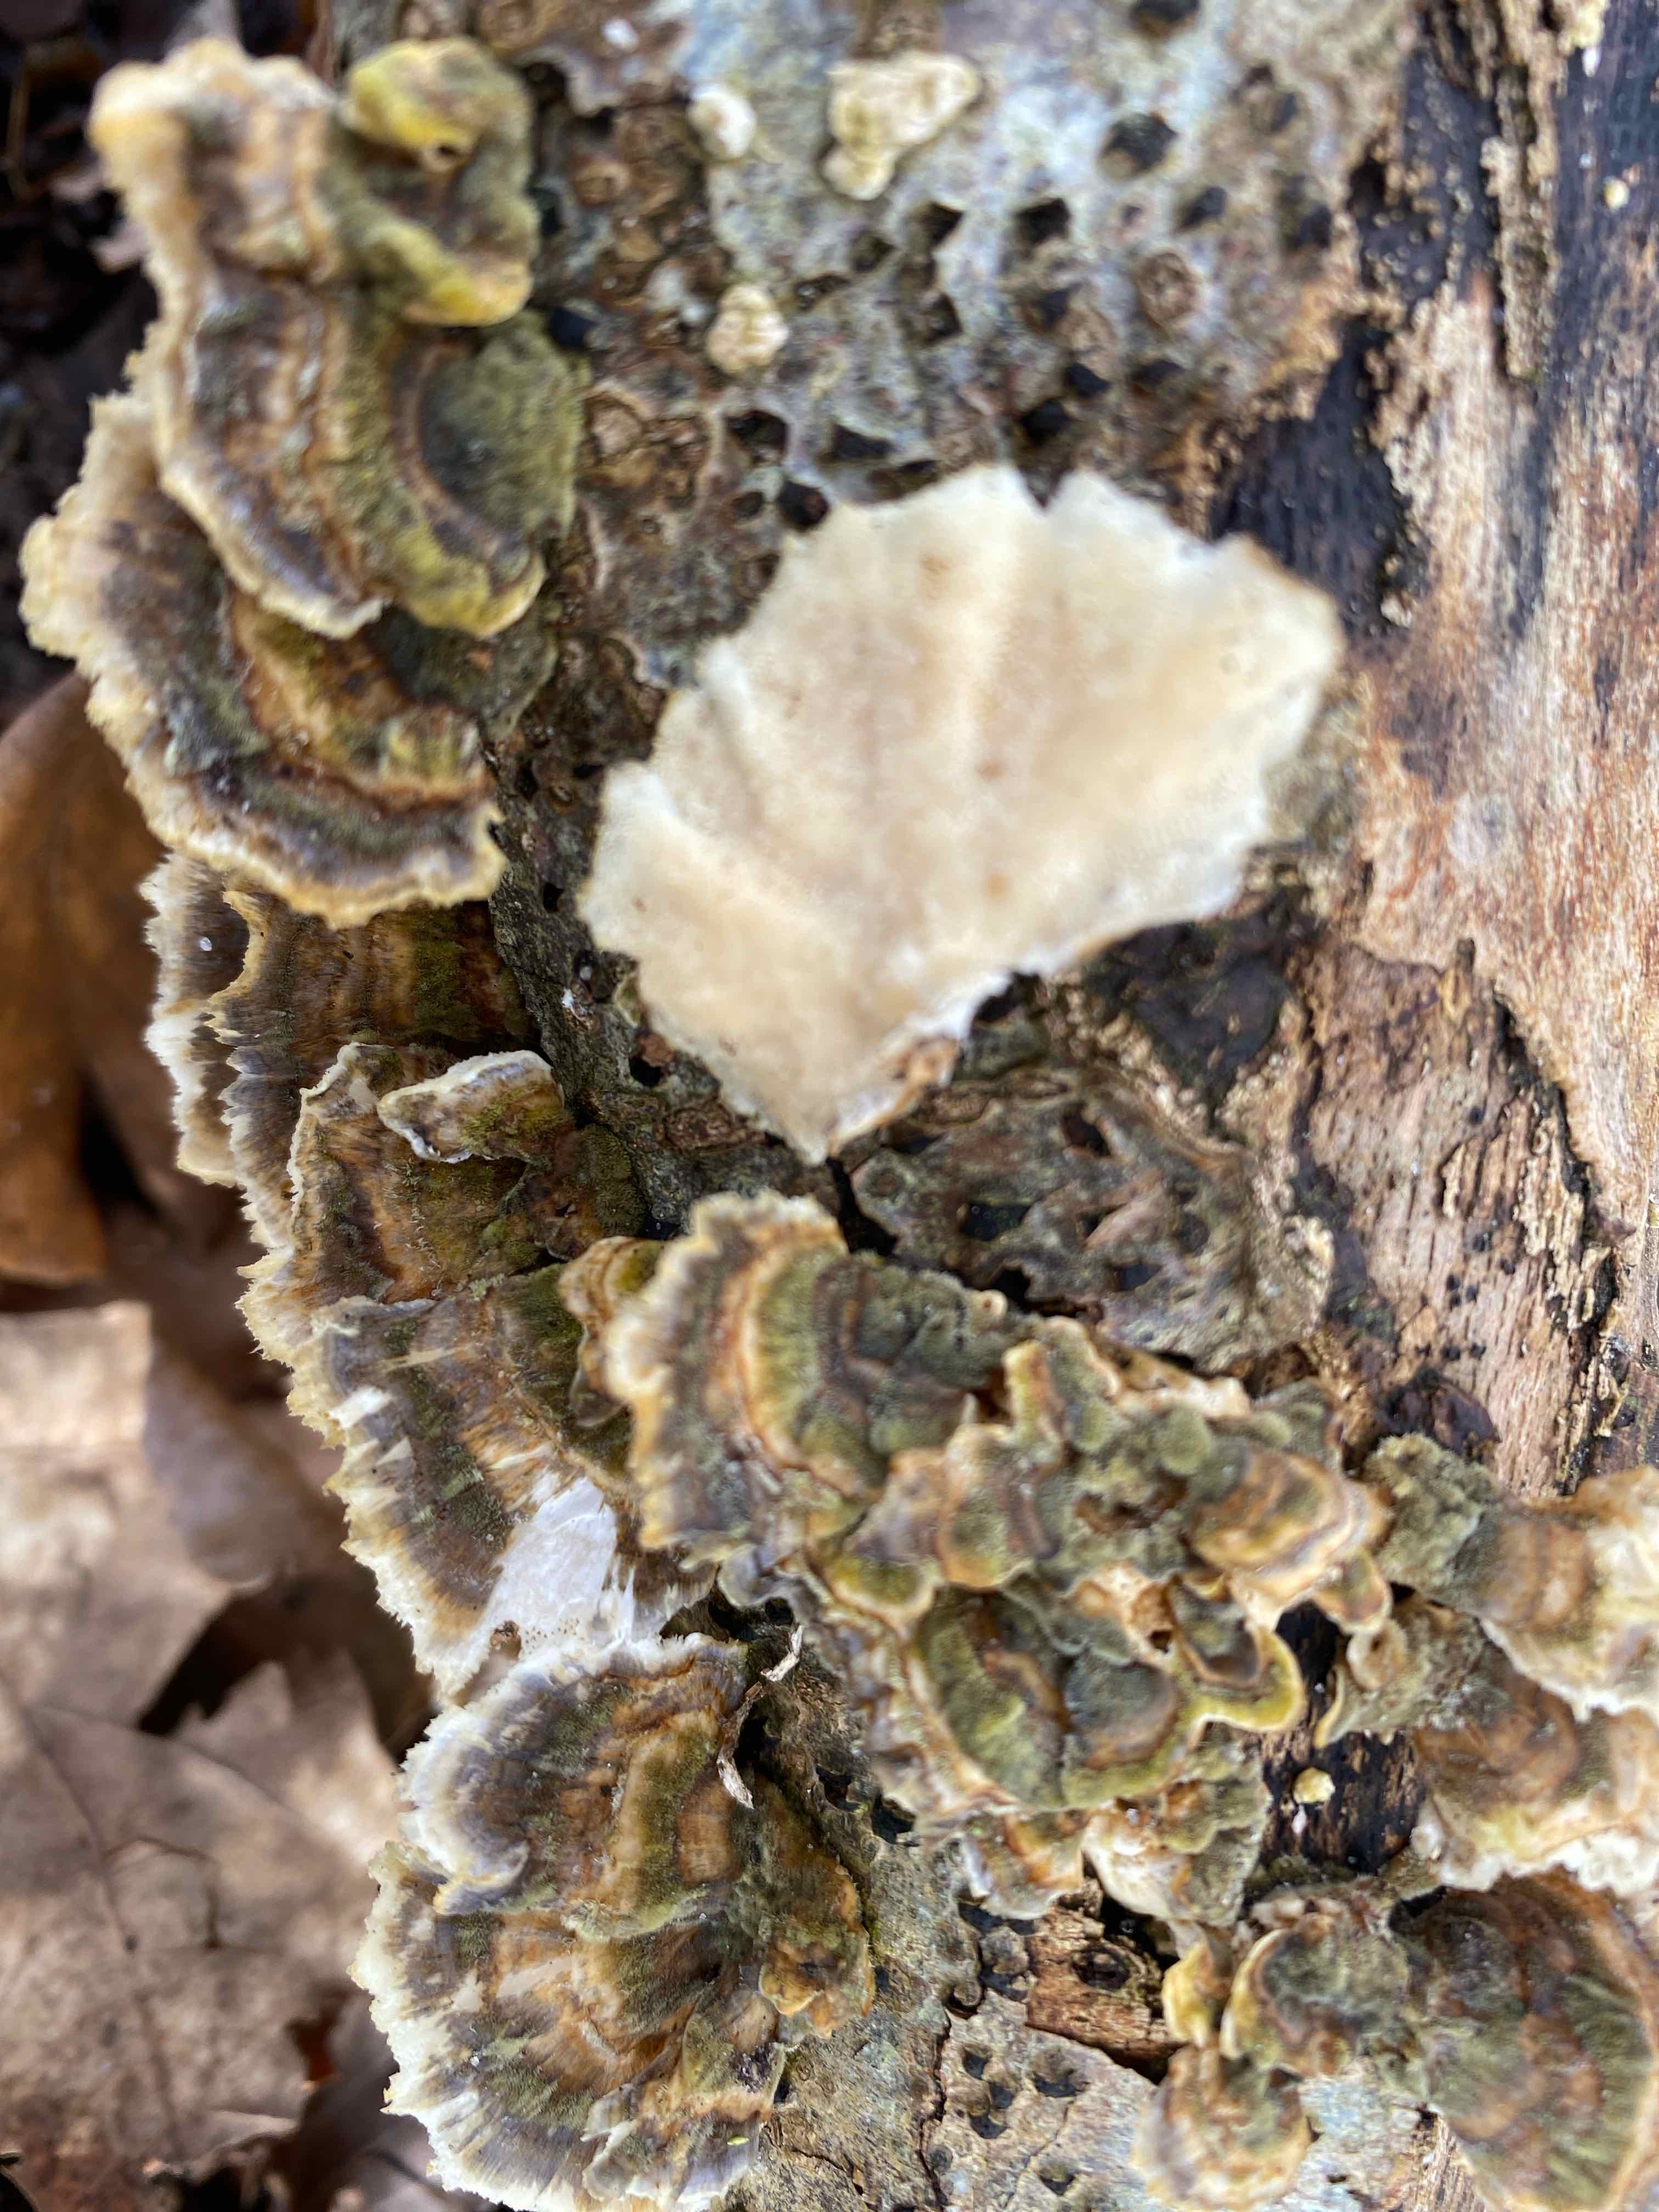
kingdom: Fungi
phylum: Basidiomycota
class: Agaricomycetes
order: Polyporales
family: Polyporaceae
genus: Trametes
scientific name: Trametes versicolor
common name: broget læderporesvamp
